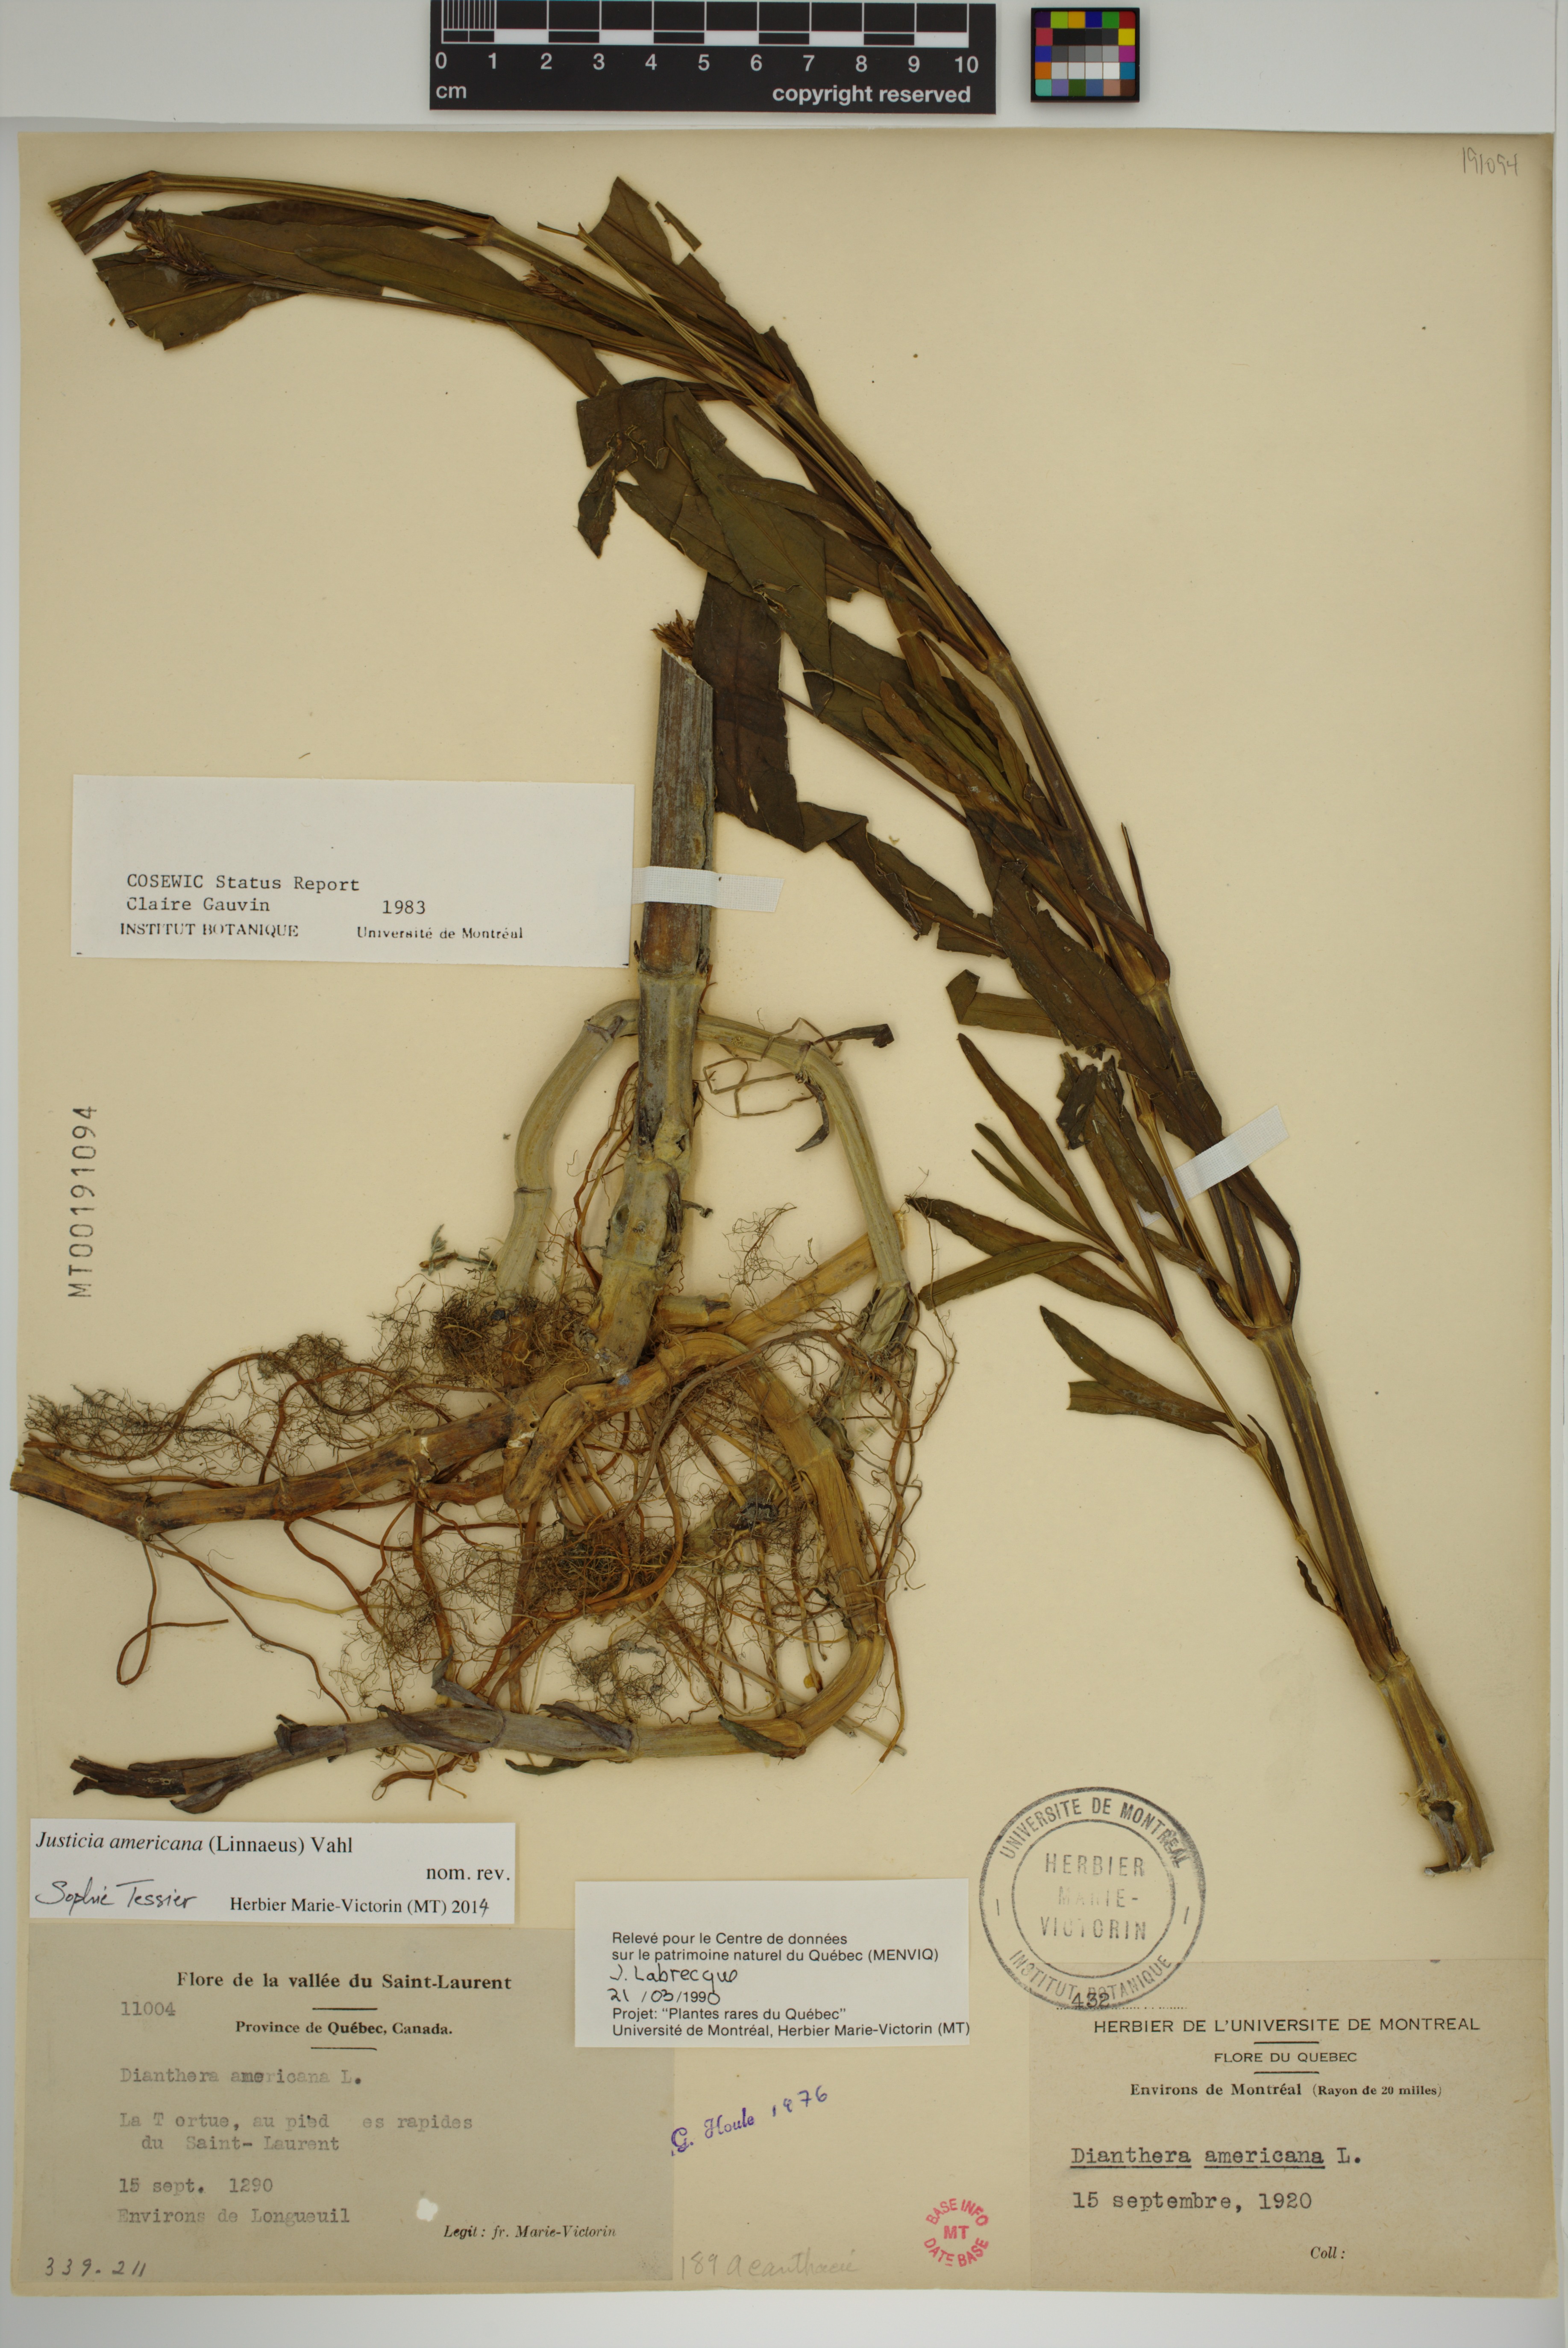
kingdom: Plantae
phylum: Tracheophyta
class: Magnoliopsida
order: Lamiales
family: Acanthaceae
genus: Dianthera
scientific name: Dianthera americana
